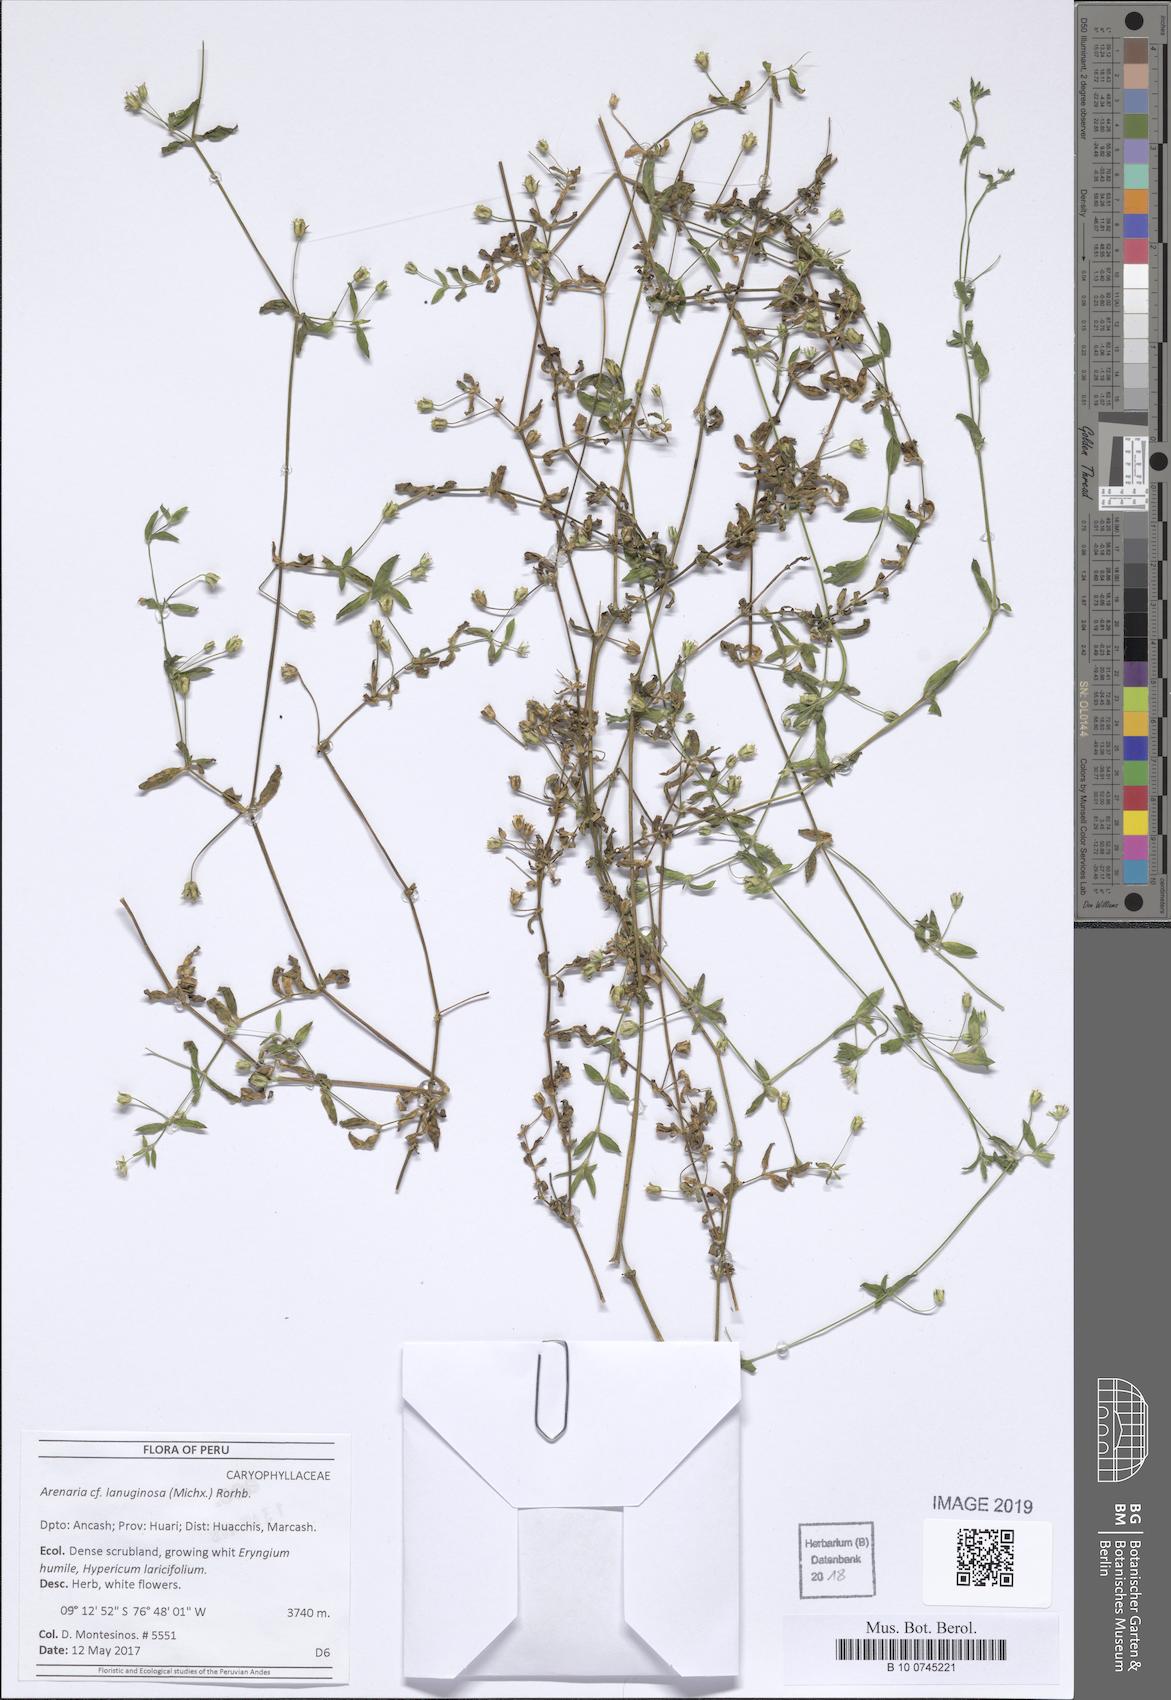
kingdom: Plantae
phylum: Tracheophyta
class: Magnoliopsida
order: Caryophyllales
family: Caryophyllaceae
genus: Arenaria
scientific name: Arenaria lanuginosa
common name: Spread sandwort
